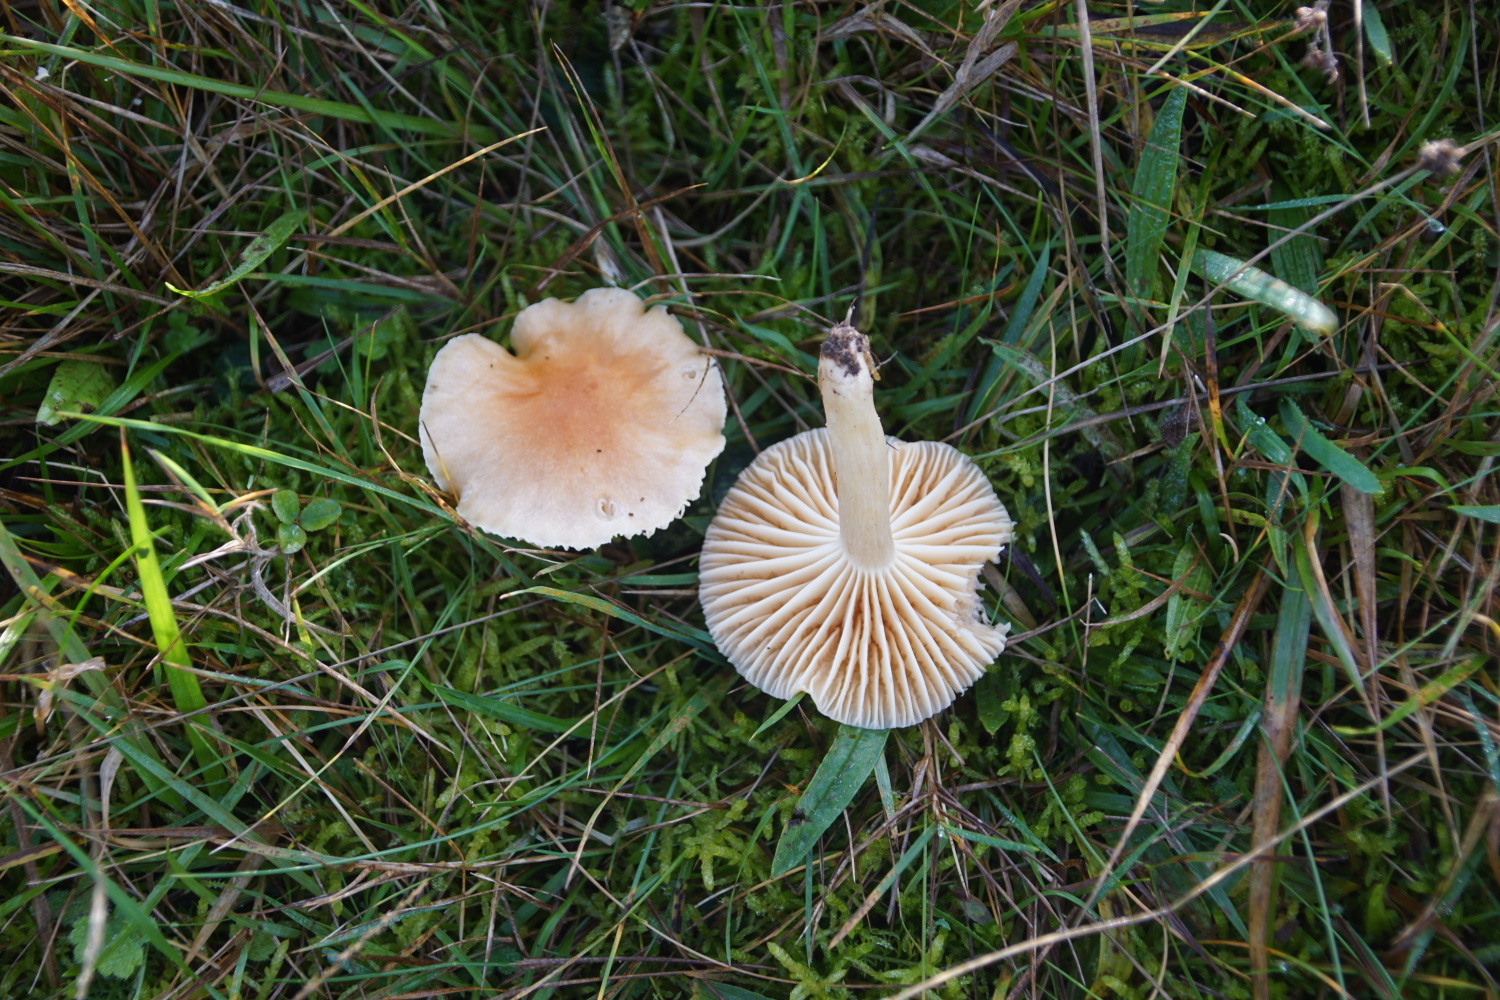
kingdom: Fungi
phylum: Basidiomycota
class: Agaricomycetes
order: Agaricales
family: Hygrophoraceae
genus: Cuphophyllus
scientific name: Cuphophyllus pratensis
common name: eng-vokshat
